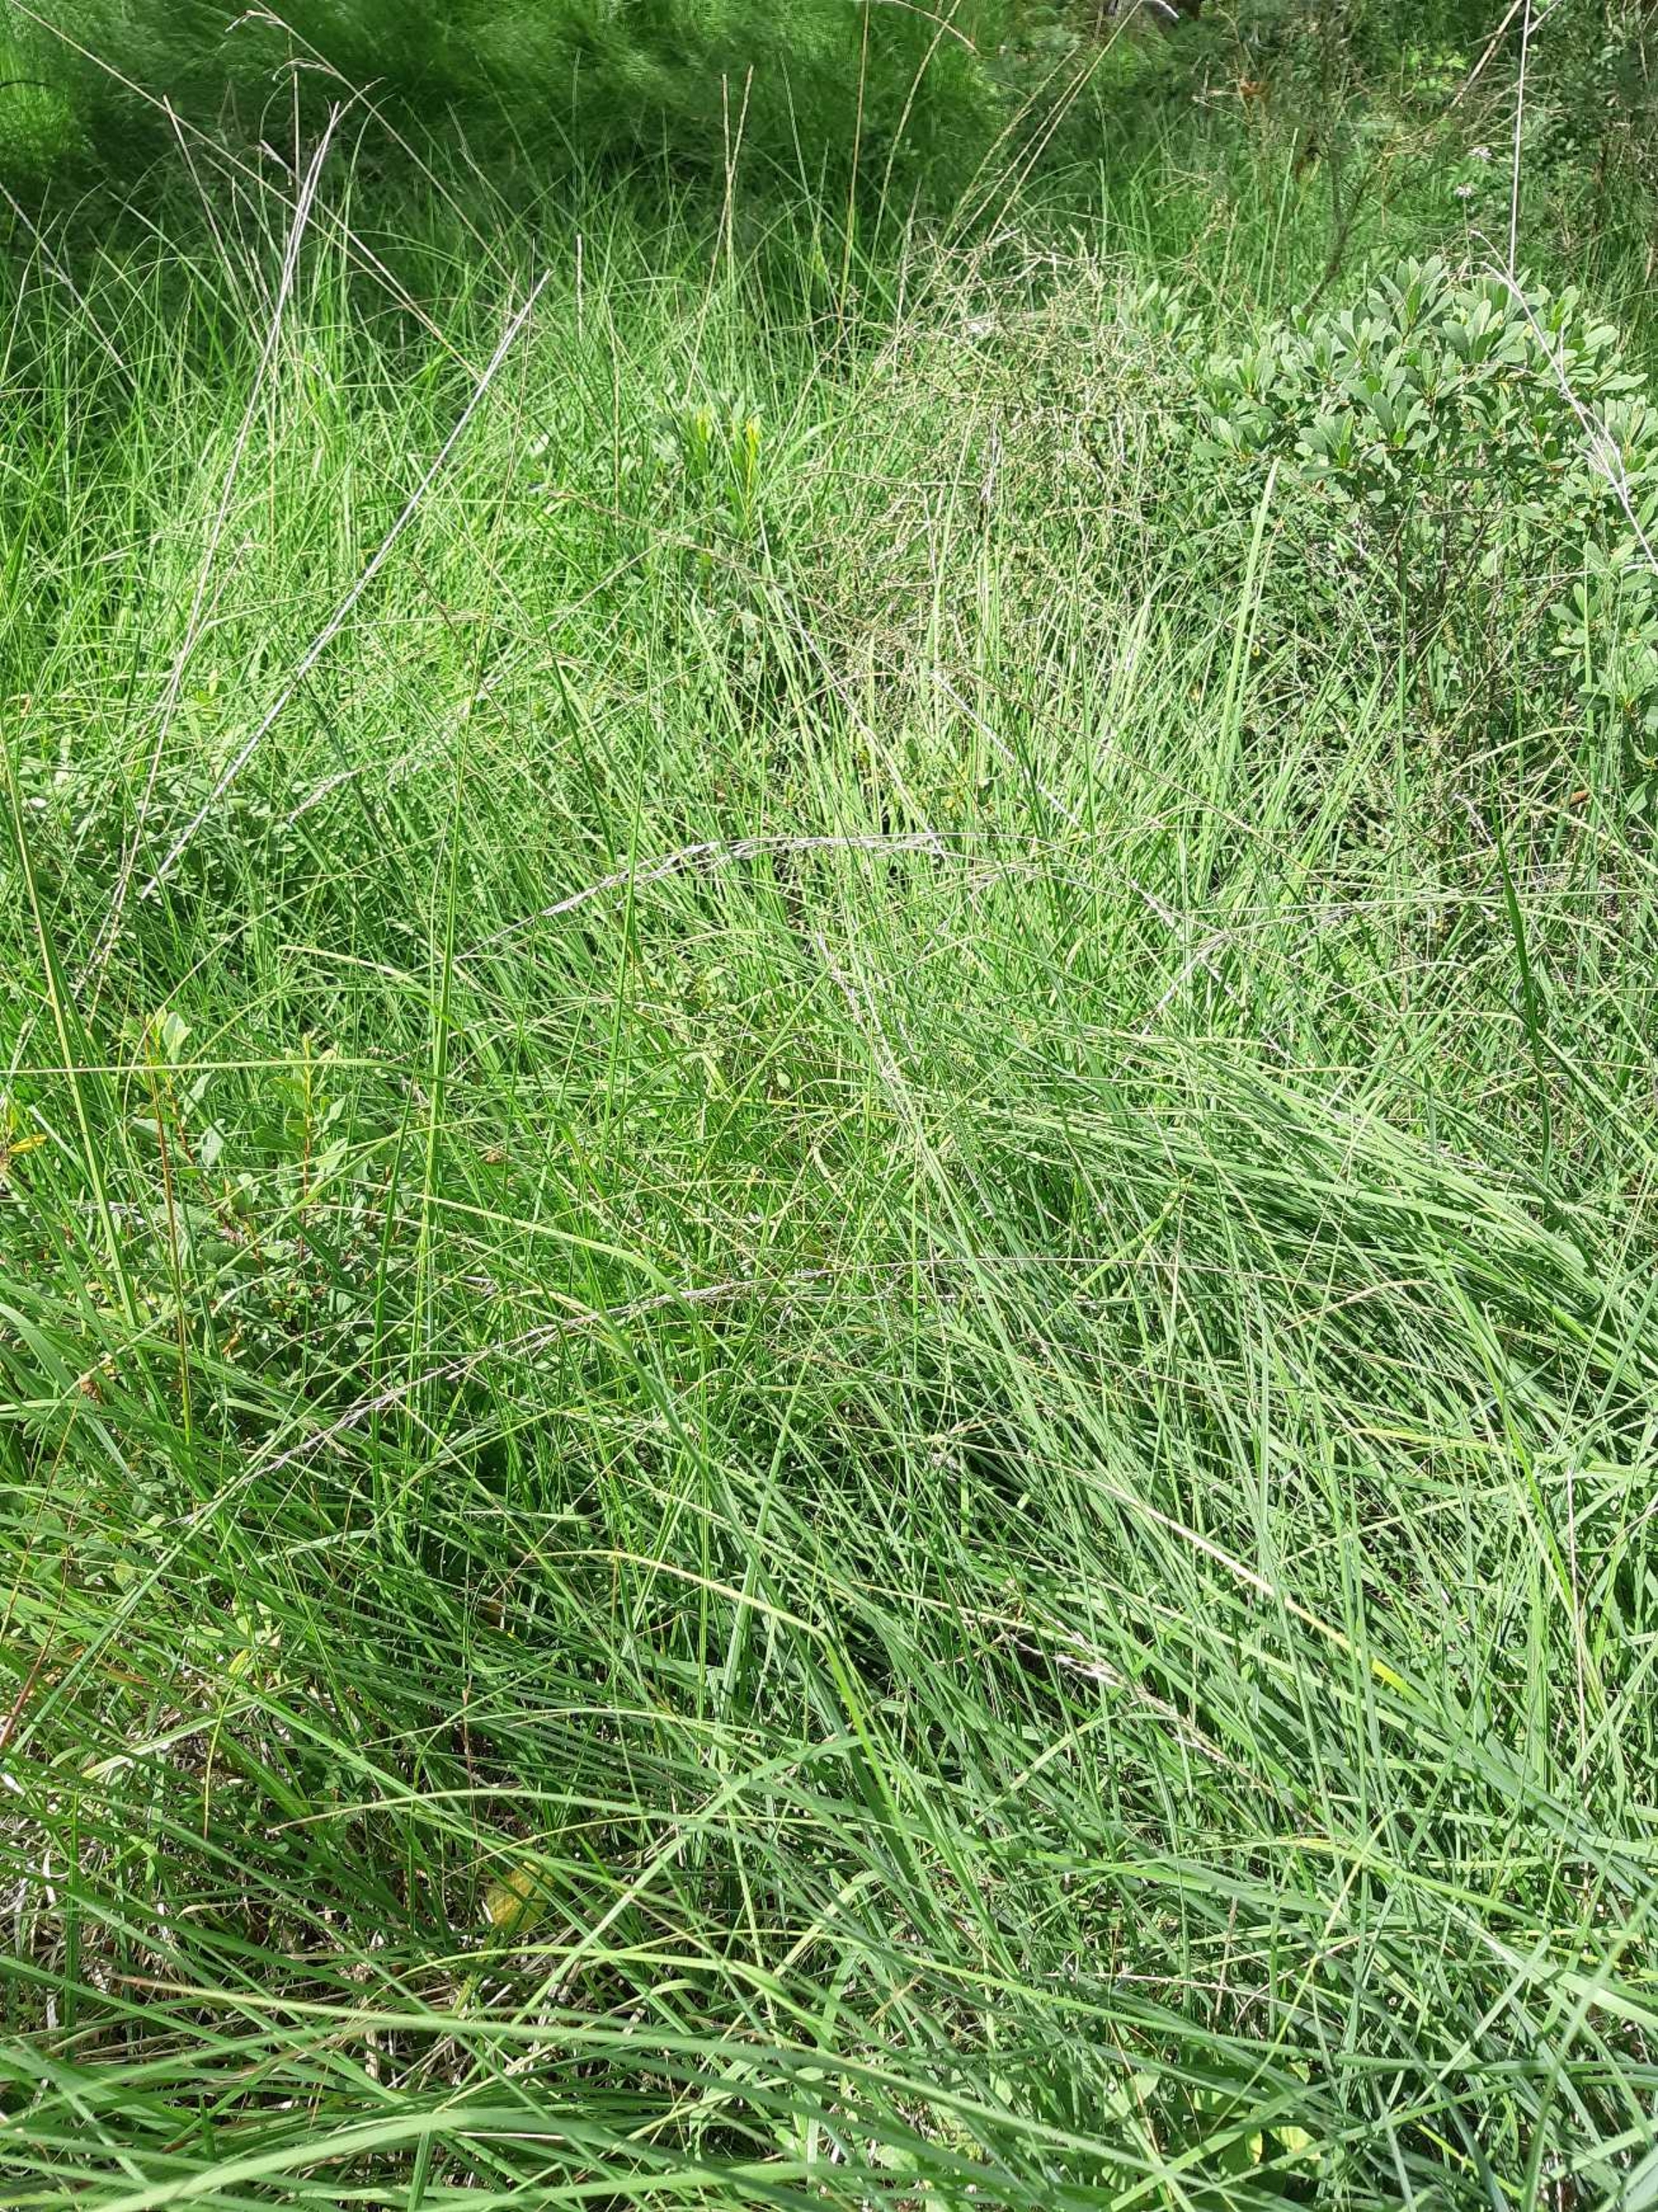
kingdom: Plantae
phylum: Tracheophyta
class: Liliopsida
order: Poales
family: Poaceae
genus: Molinia
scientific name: Molinia caerulea
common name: Blåtop
